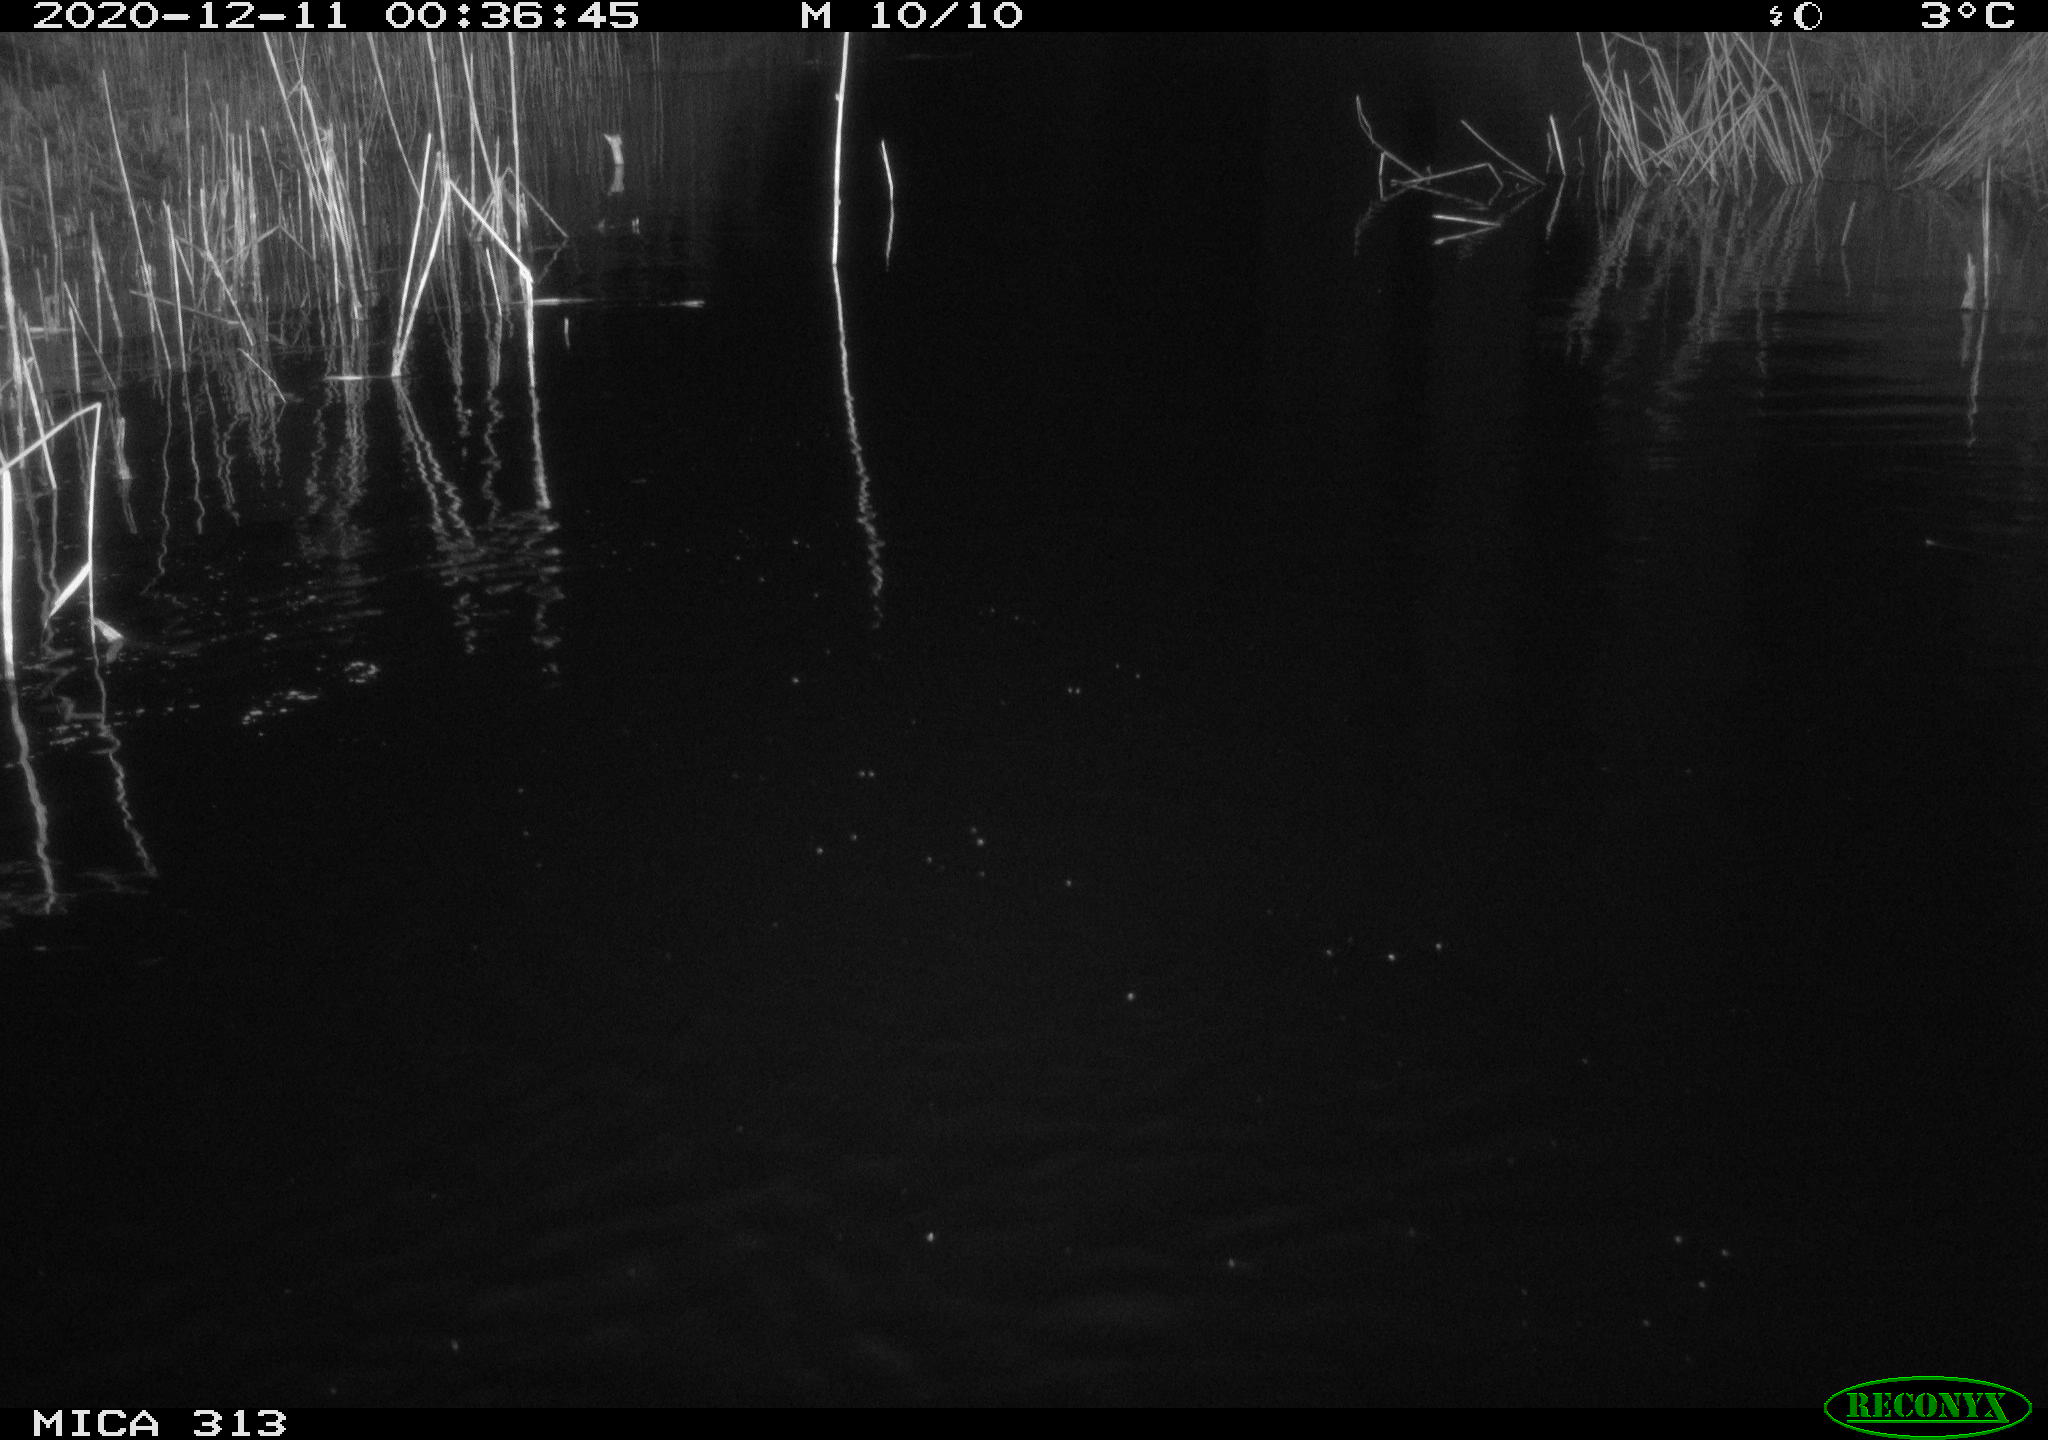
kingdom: Animalia
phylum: Chordata
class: Mammalia
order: Rodentia
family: Muridae
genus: Rattus
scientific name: Rattus norvegicus
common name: Brown rat
